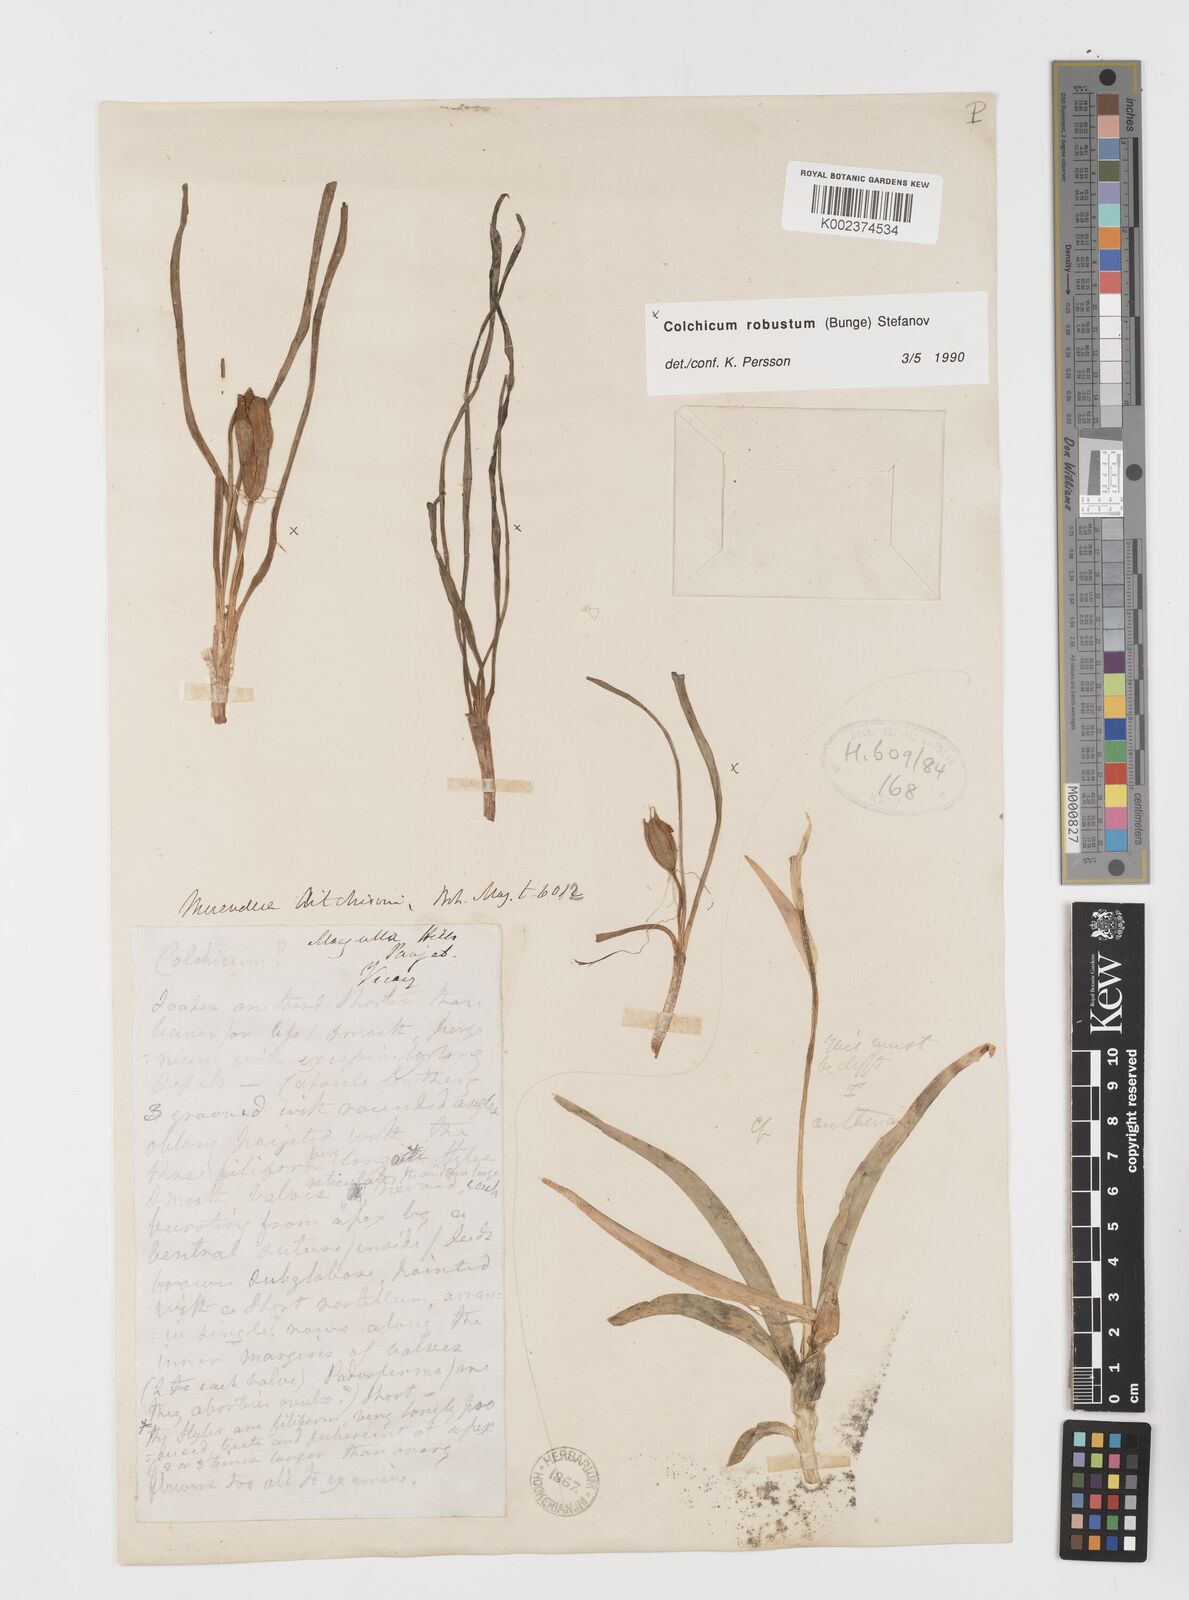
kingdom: Plantae
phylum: Tracheophyta
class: Liliopsida
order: Liliales
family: Colchicaceae
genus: Colchicum
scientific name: Colchicum robustum
